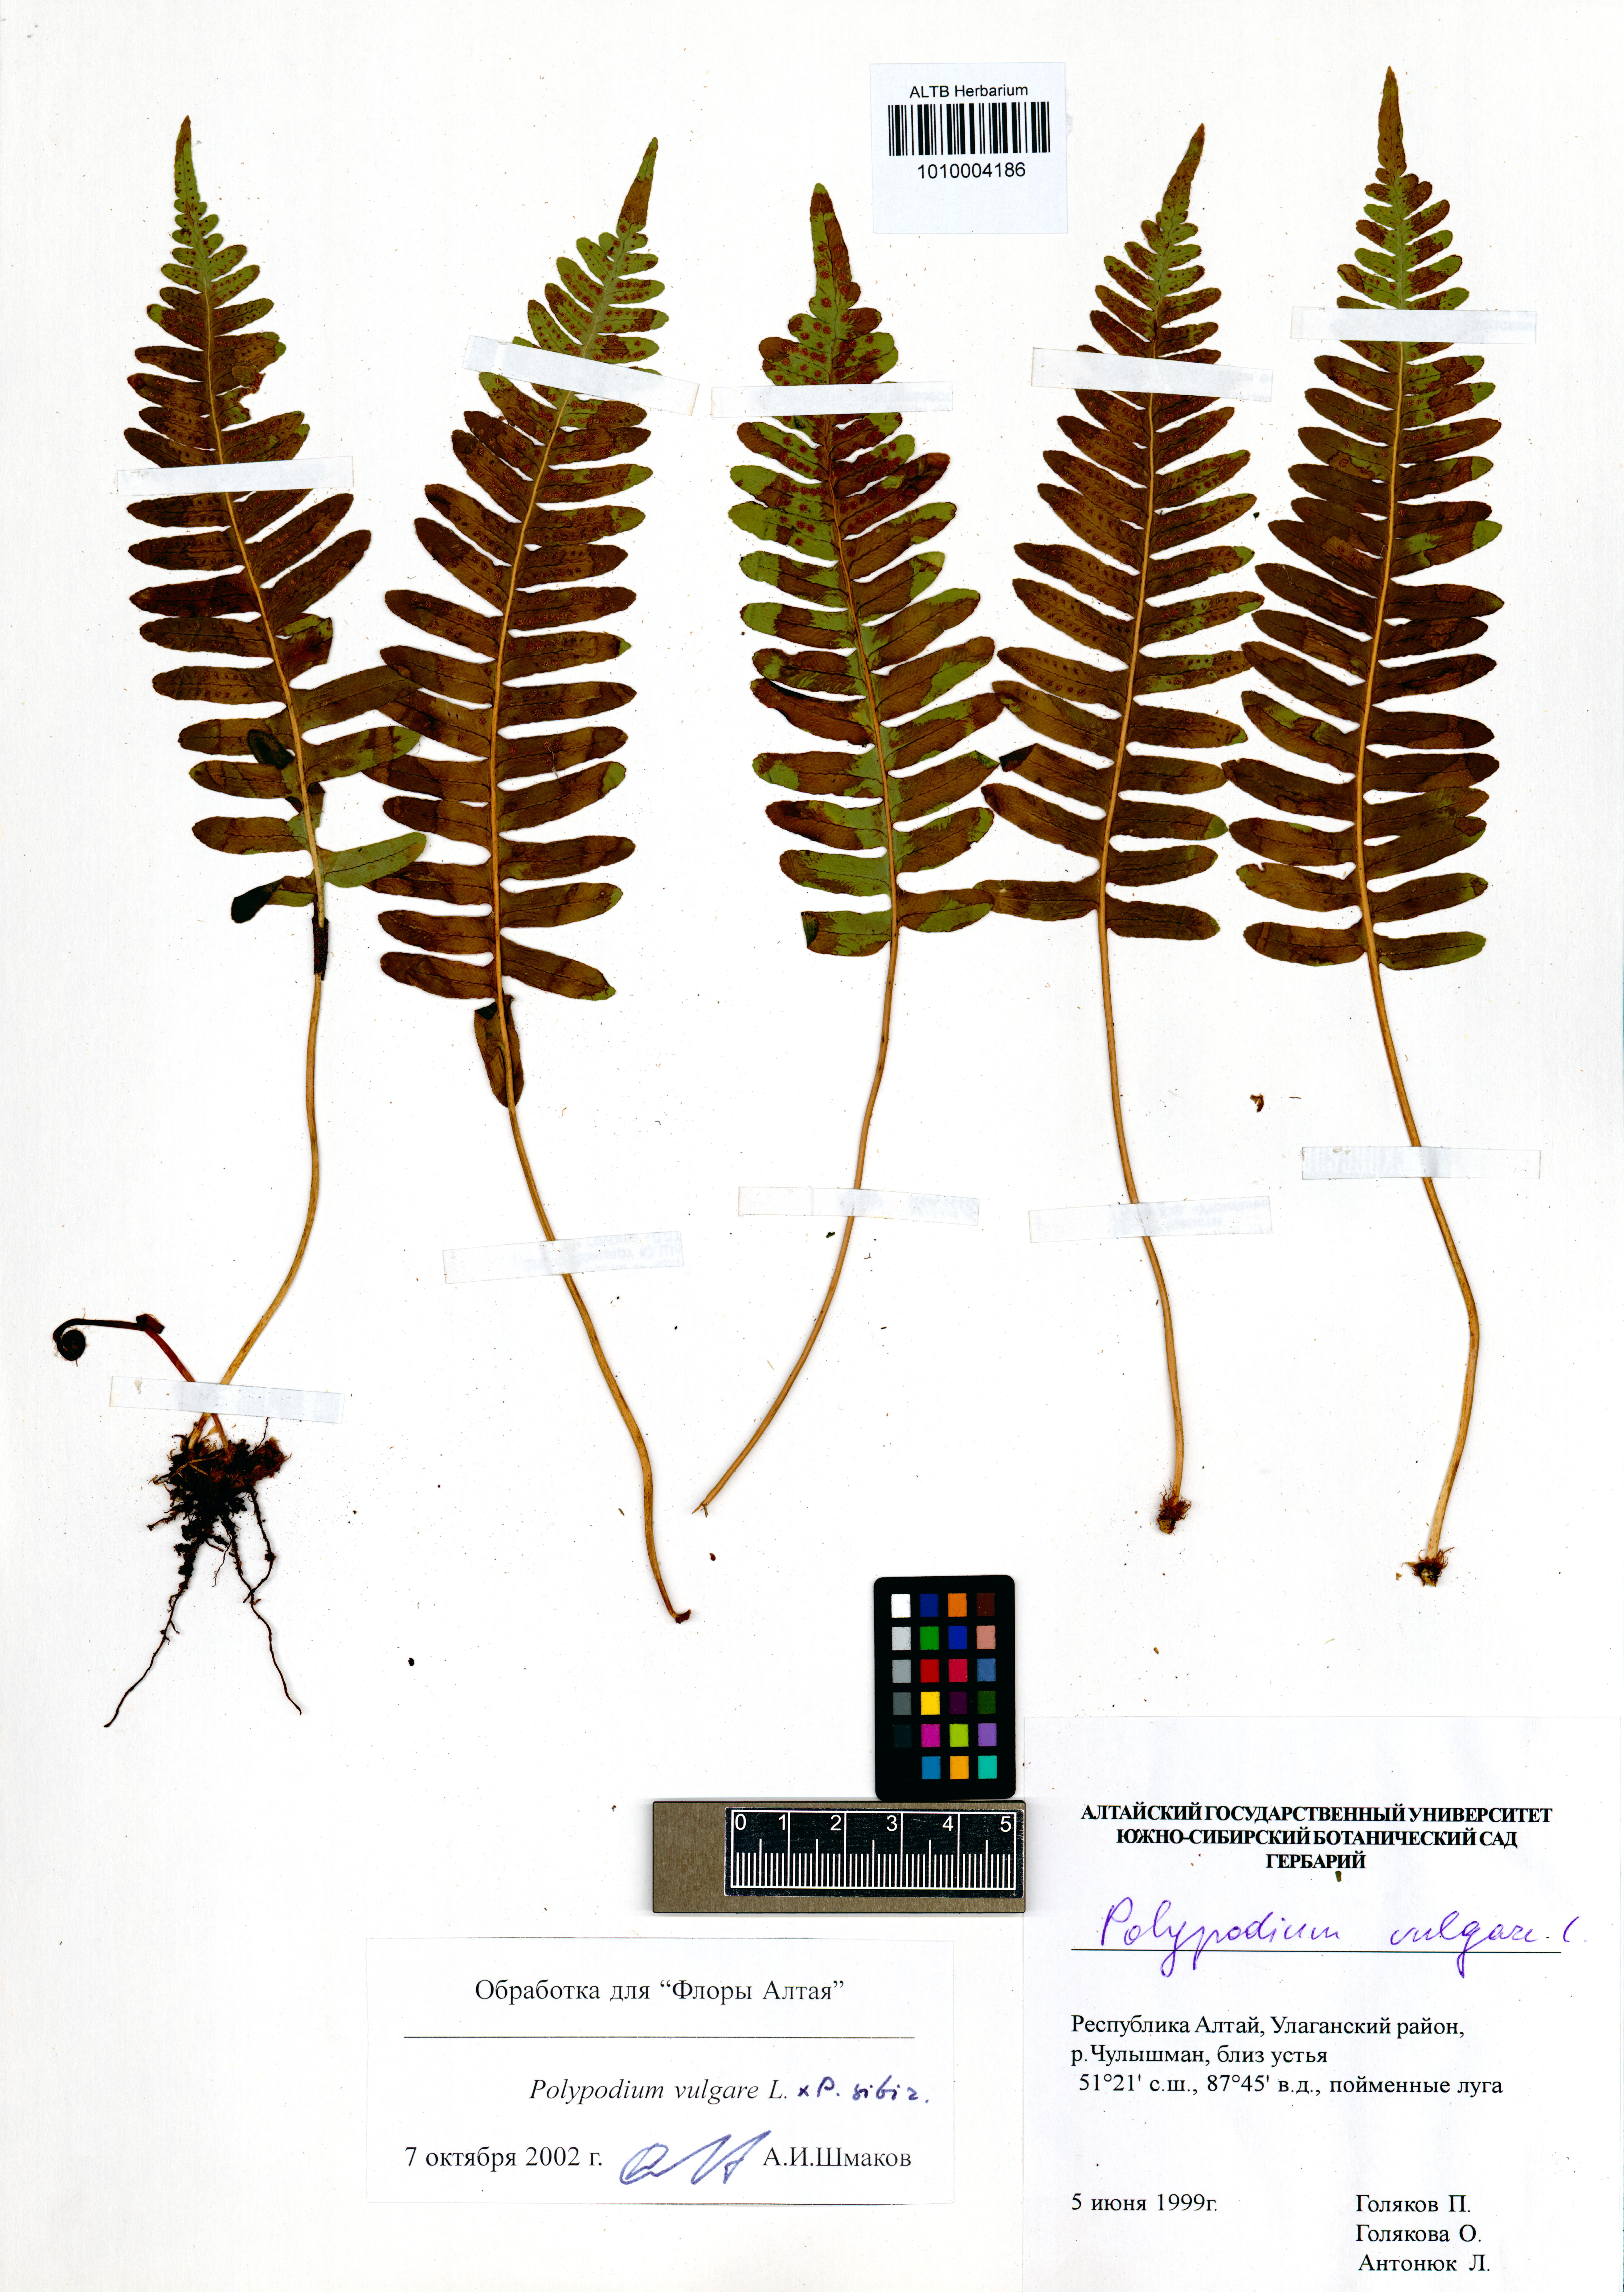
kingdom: Plantae
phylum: Tracheophyta
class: Polypodiopsida
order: Polypodiales
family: Polypodiaceae
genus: Polypodium
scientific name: Polypodium vulgare
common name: Common polypody
